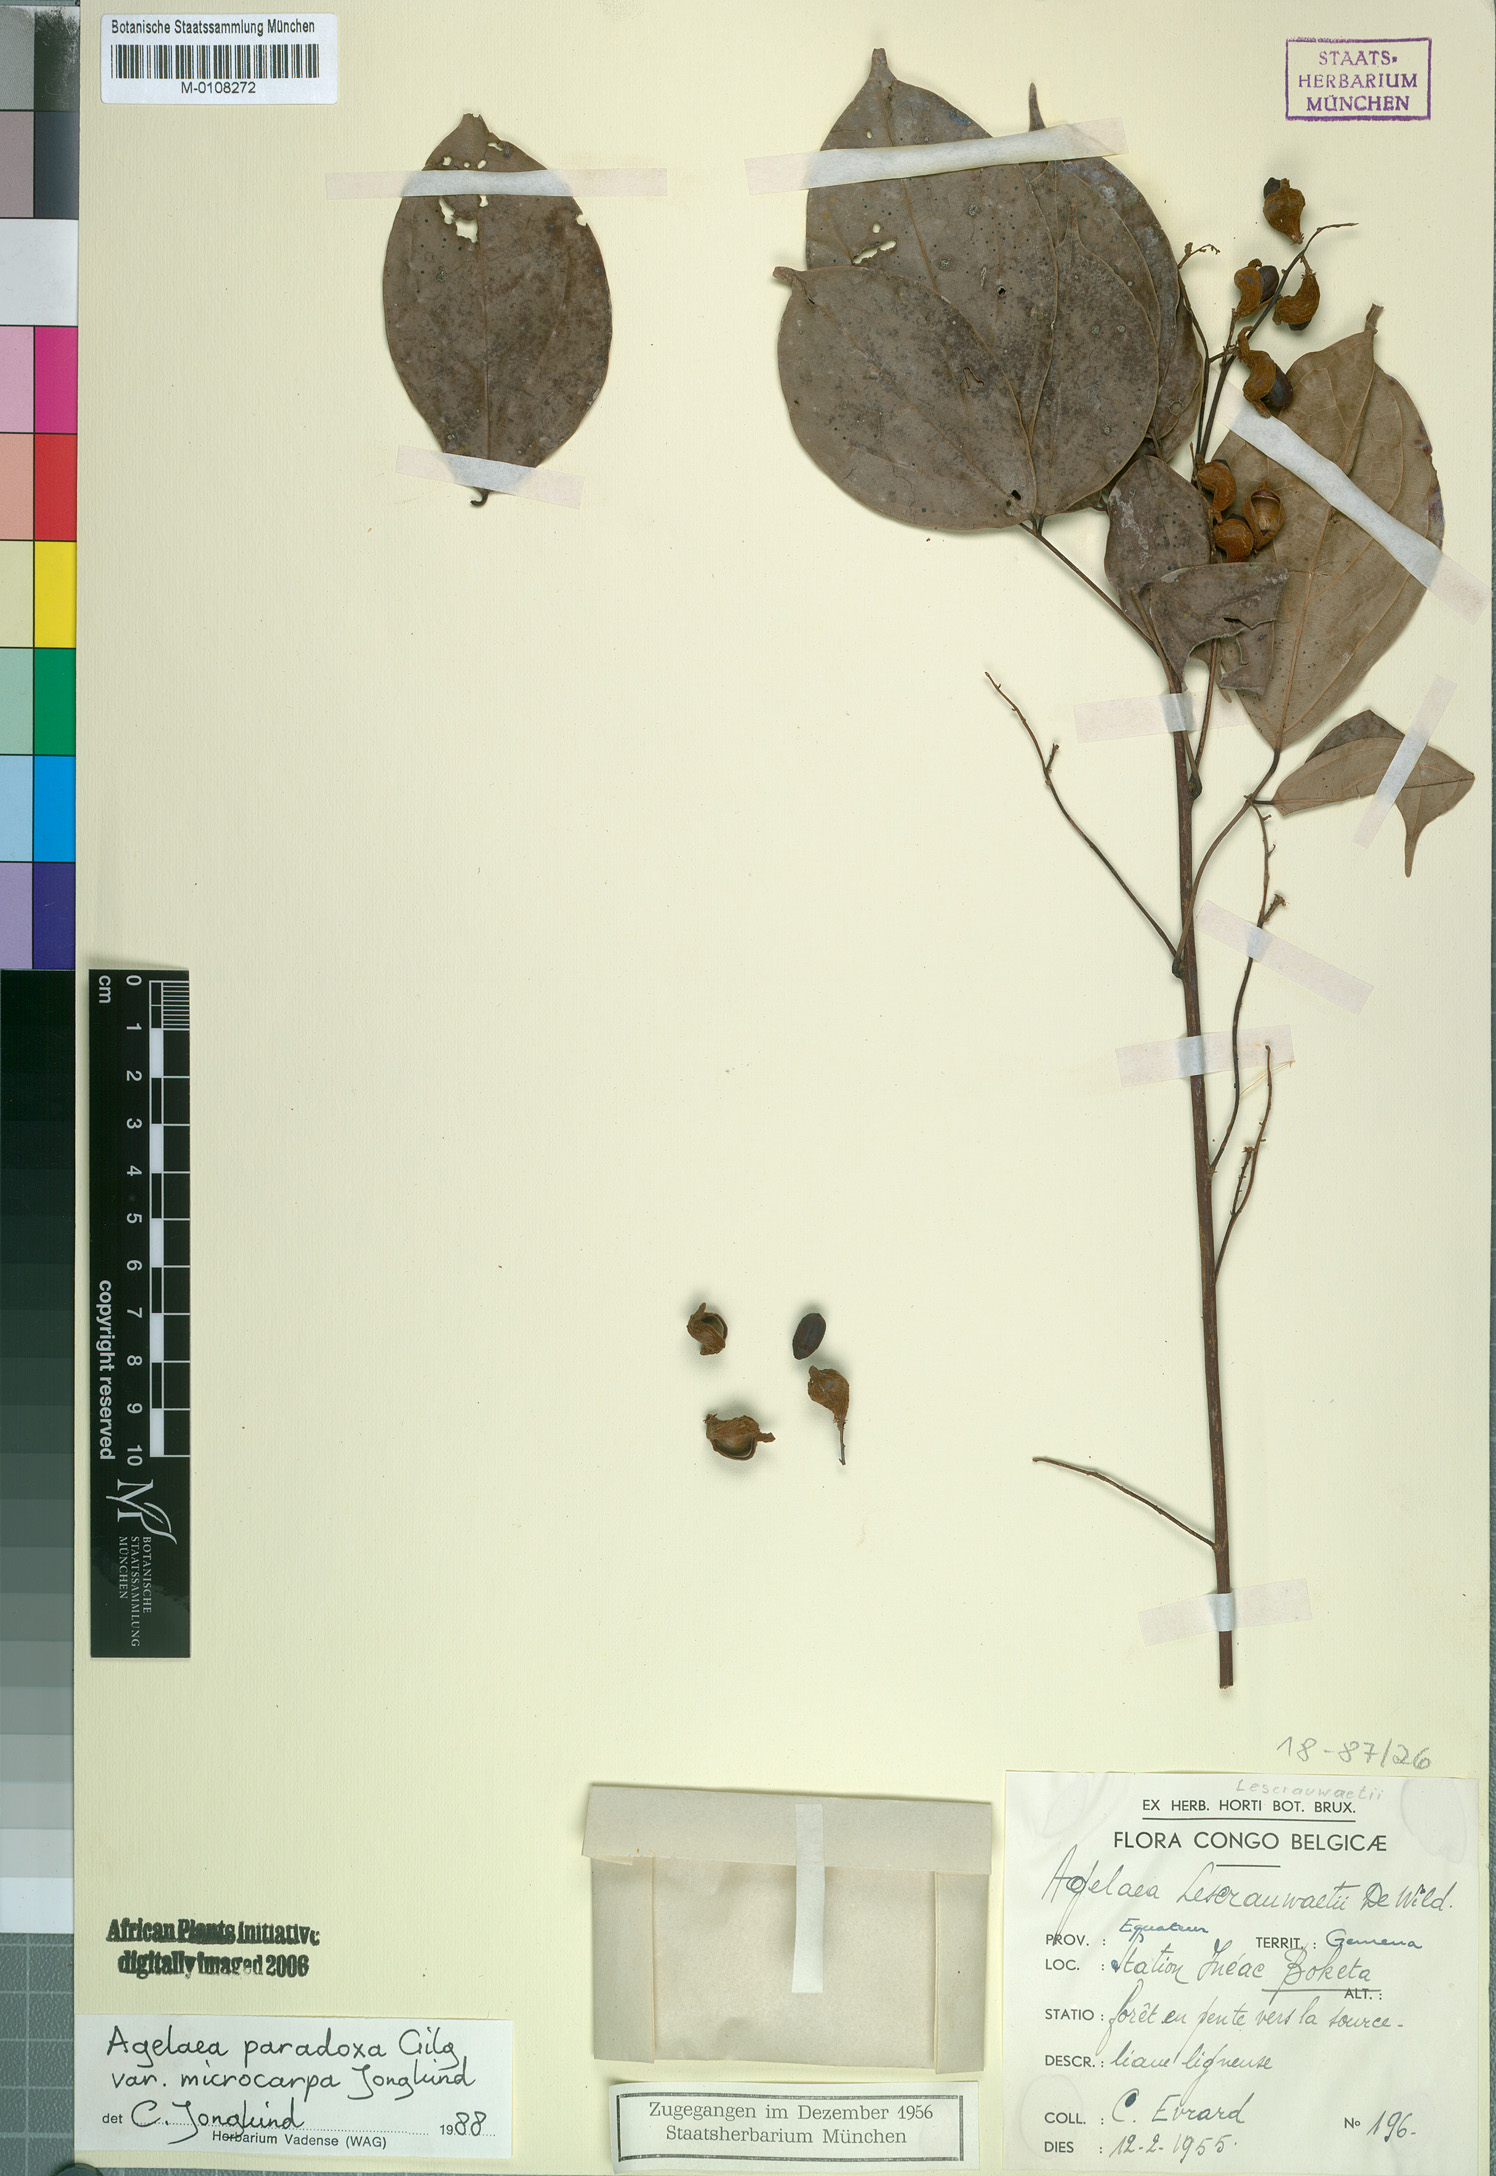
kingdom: Plantae
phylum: Tracheophyta
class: Magnoliopsida
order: Oxalidales
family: Connaraceae
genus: Castanola
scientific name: Castanola paradoxa
